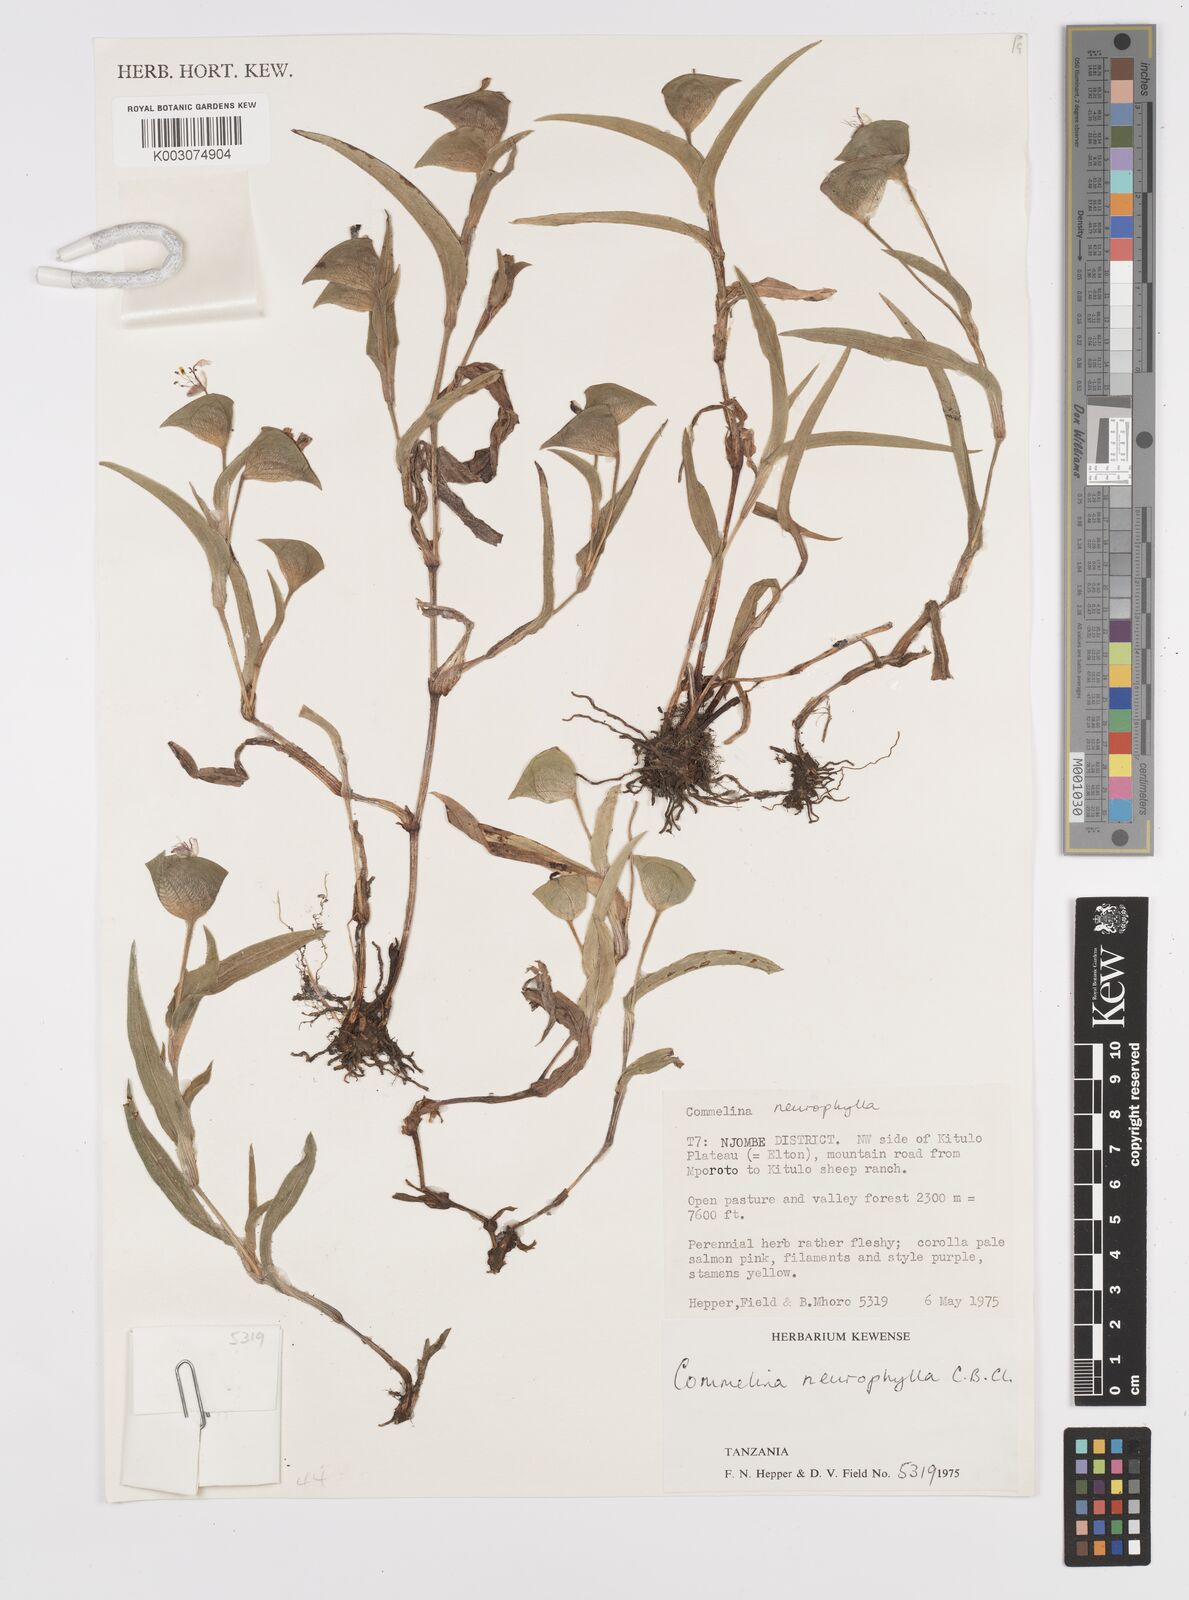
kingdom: Plantae
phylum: Tracheophyta
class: Liliopsida
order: Commelinales
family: Commelinaceae
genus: Commelina
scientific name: Commelina neurophylla
